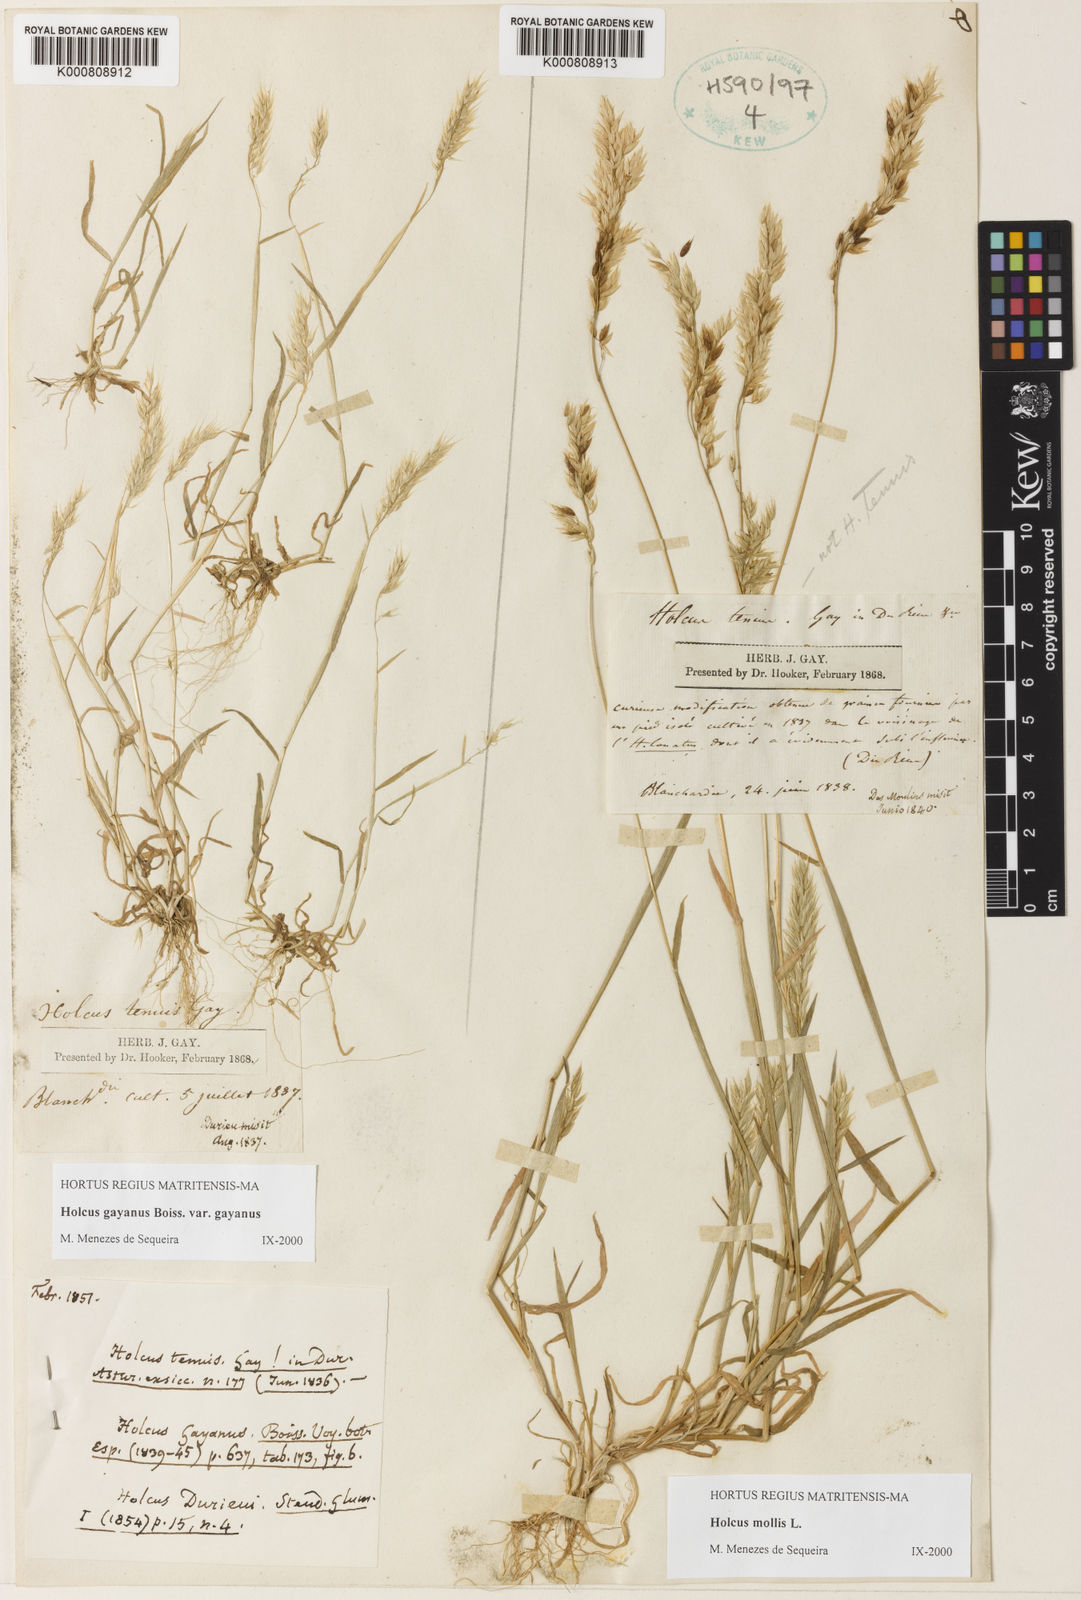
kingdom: Plantae
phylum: Tracheophyta
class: Liliopsida
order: Poales
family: Poaceae
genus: Holcus
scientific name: Holcus mollis
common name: Creeping velvetgrass
